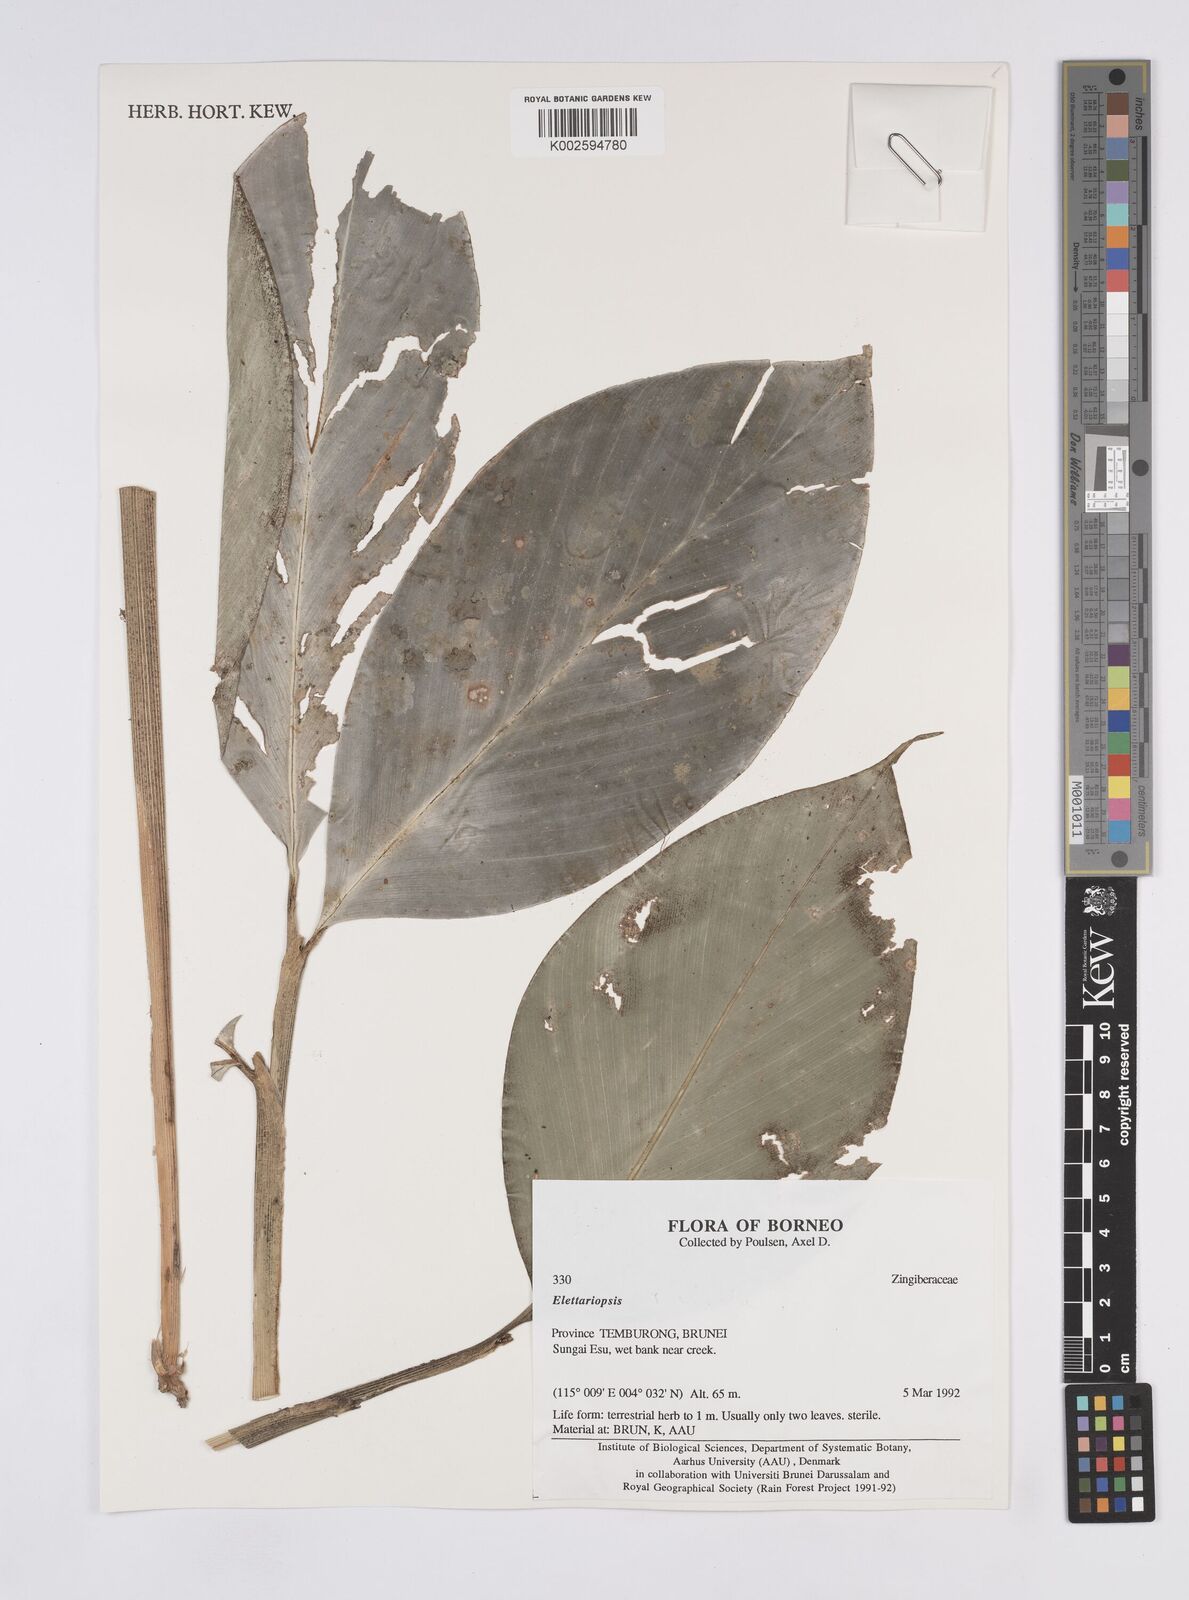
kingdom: Plantae
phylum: Tracheophyta
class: Liliopsida
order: Zingiberales
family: Zingiberaceae
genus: Amomum
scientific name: Amomum
